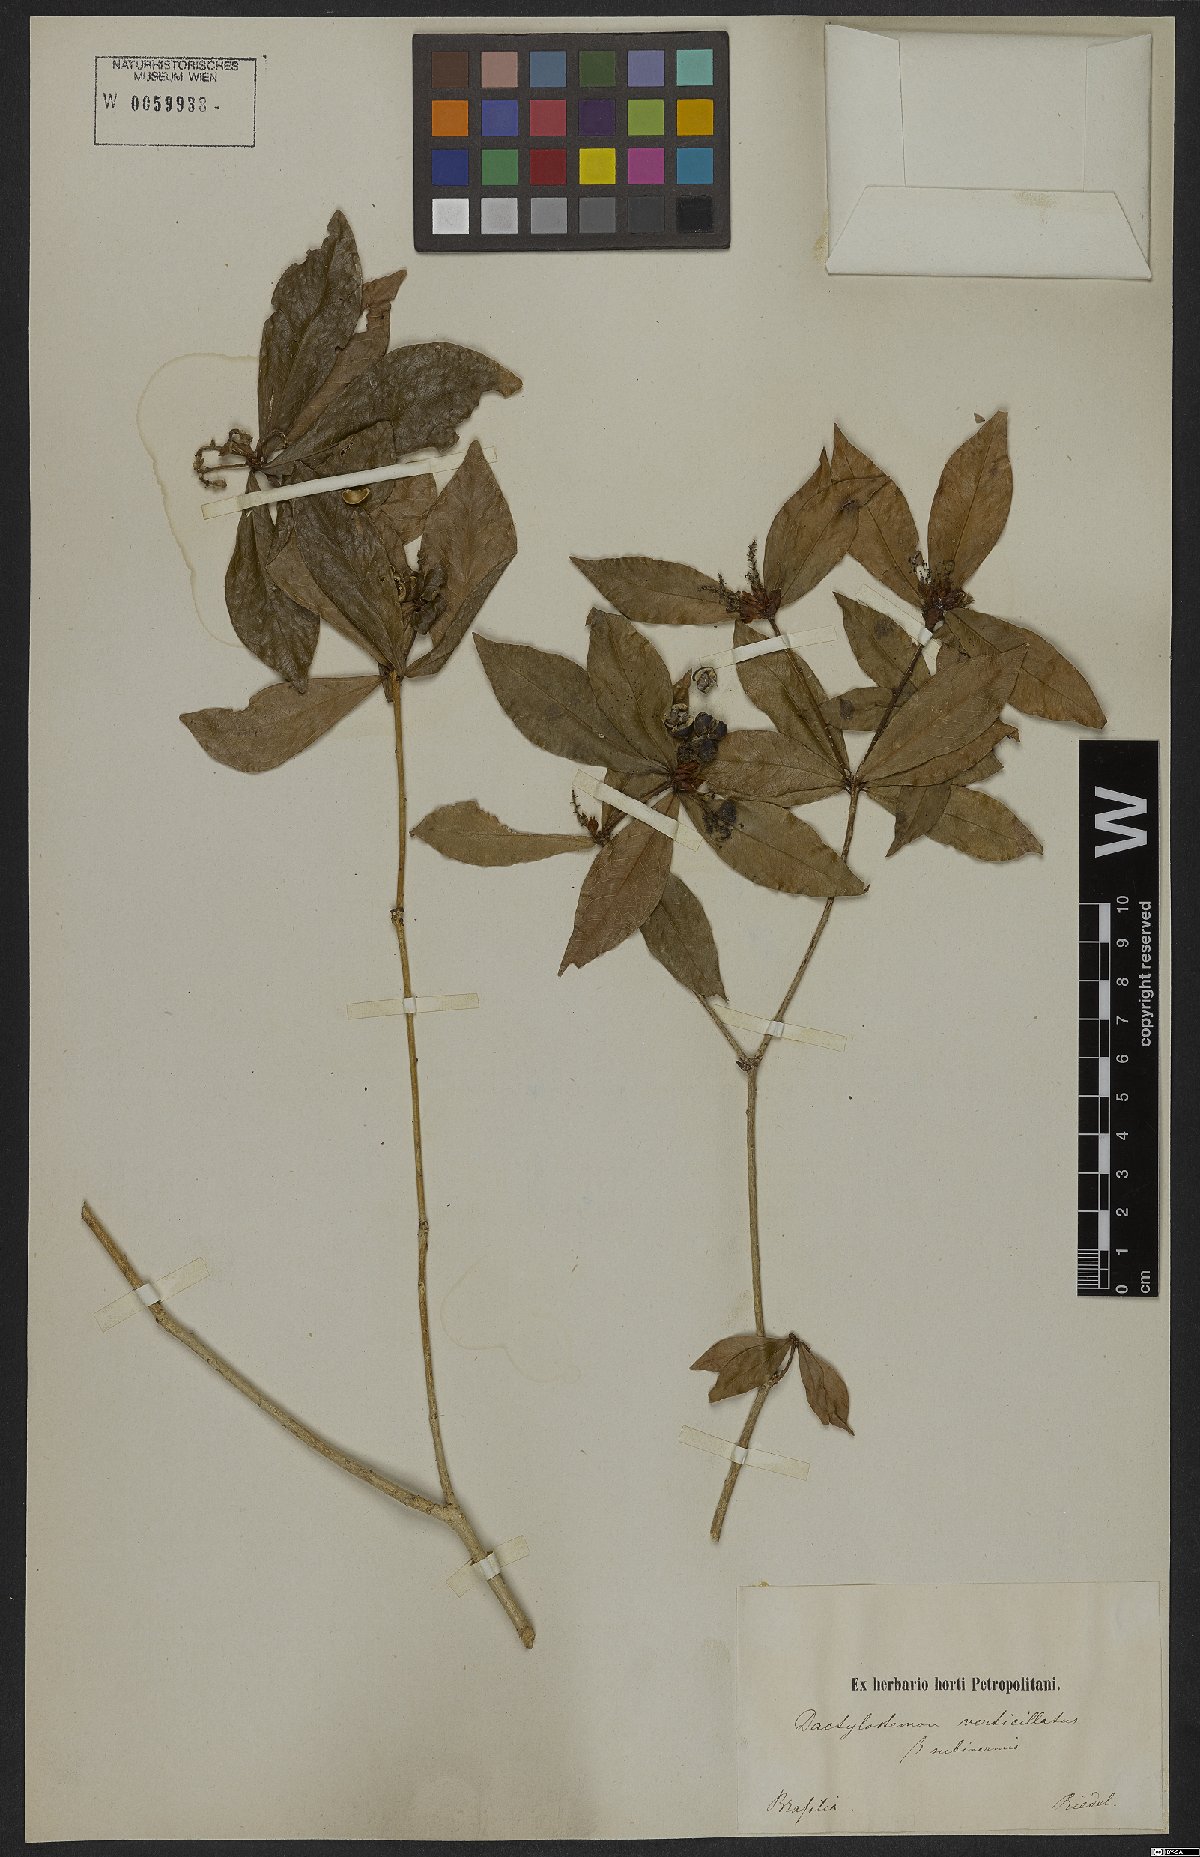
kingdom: Plantae
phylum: Tracheophyta
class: Magnoliopsida
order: Malpighiales
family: Euphorbiaceae
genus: Actinostemon
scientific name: Actinostemon verticillatus
